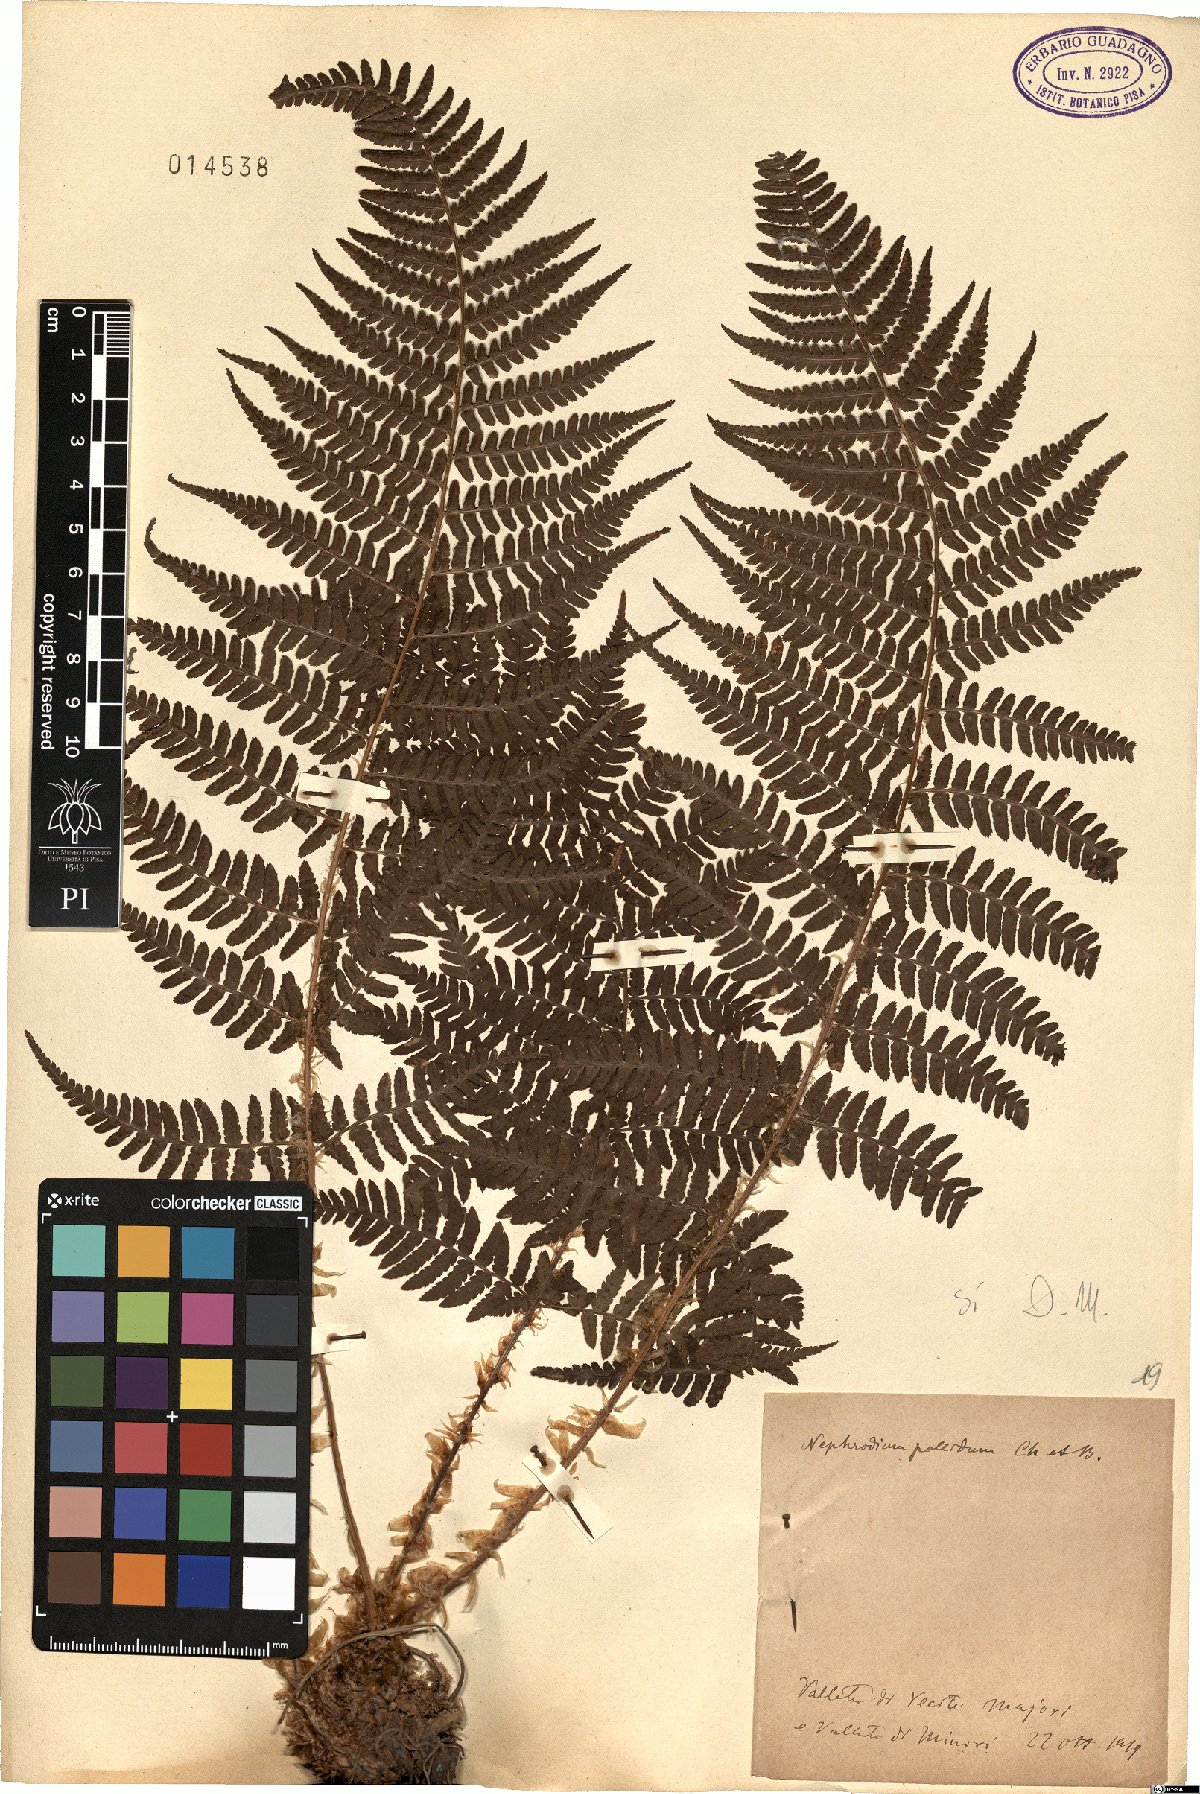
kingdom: Plantae
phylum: Tracheophyta
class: Polypodiopsida
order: Polypodiales
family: Dryopteridaceae
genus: Dryopteris
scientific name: Dryopteris pallida
